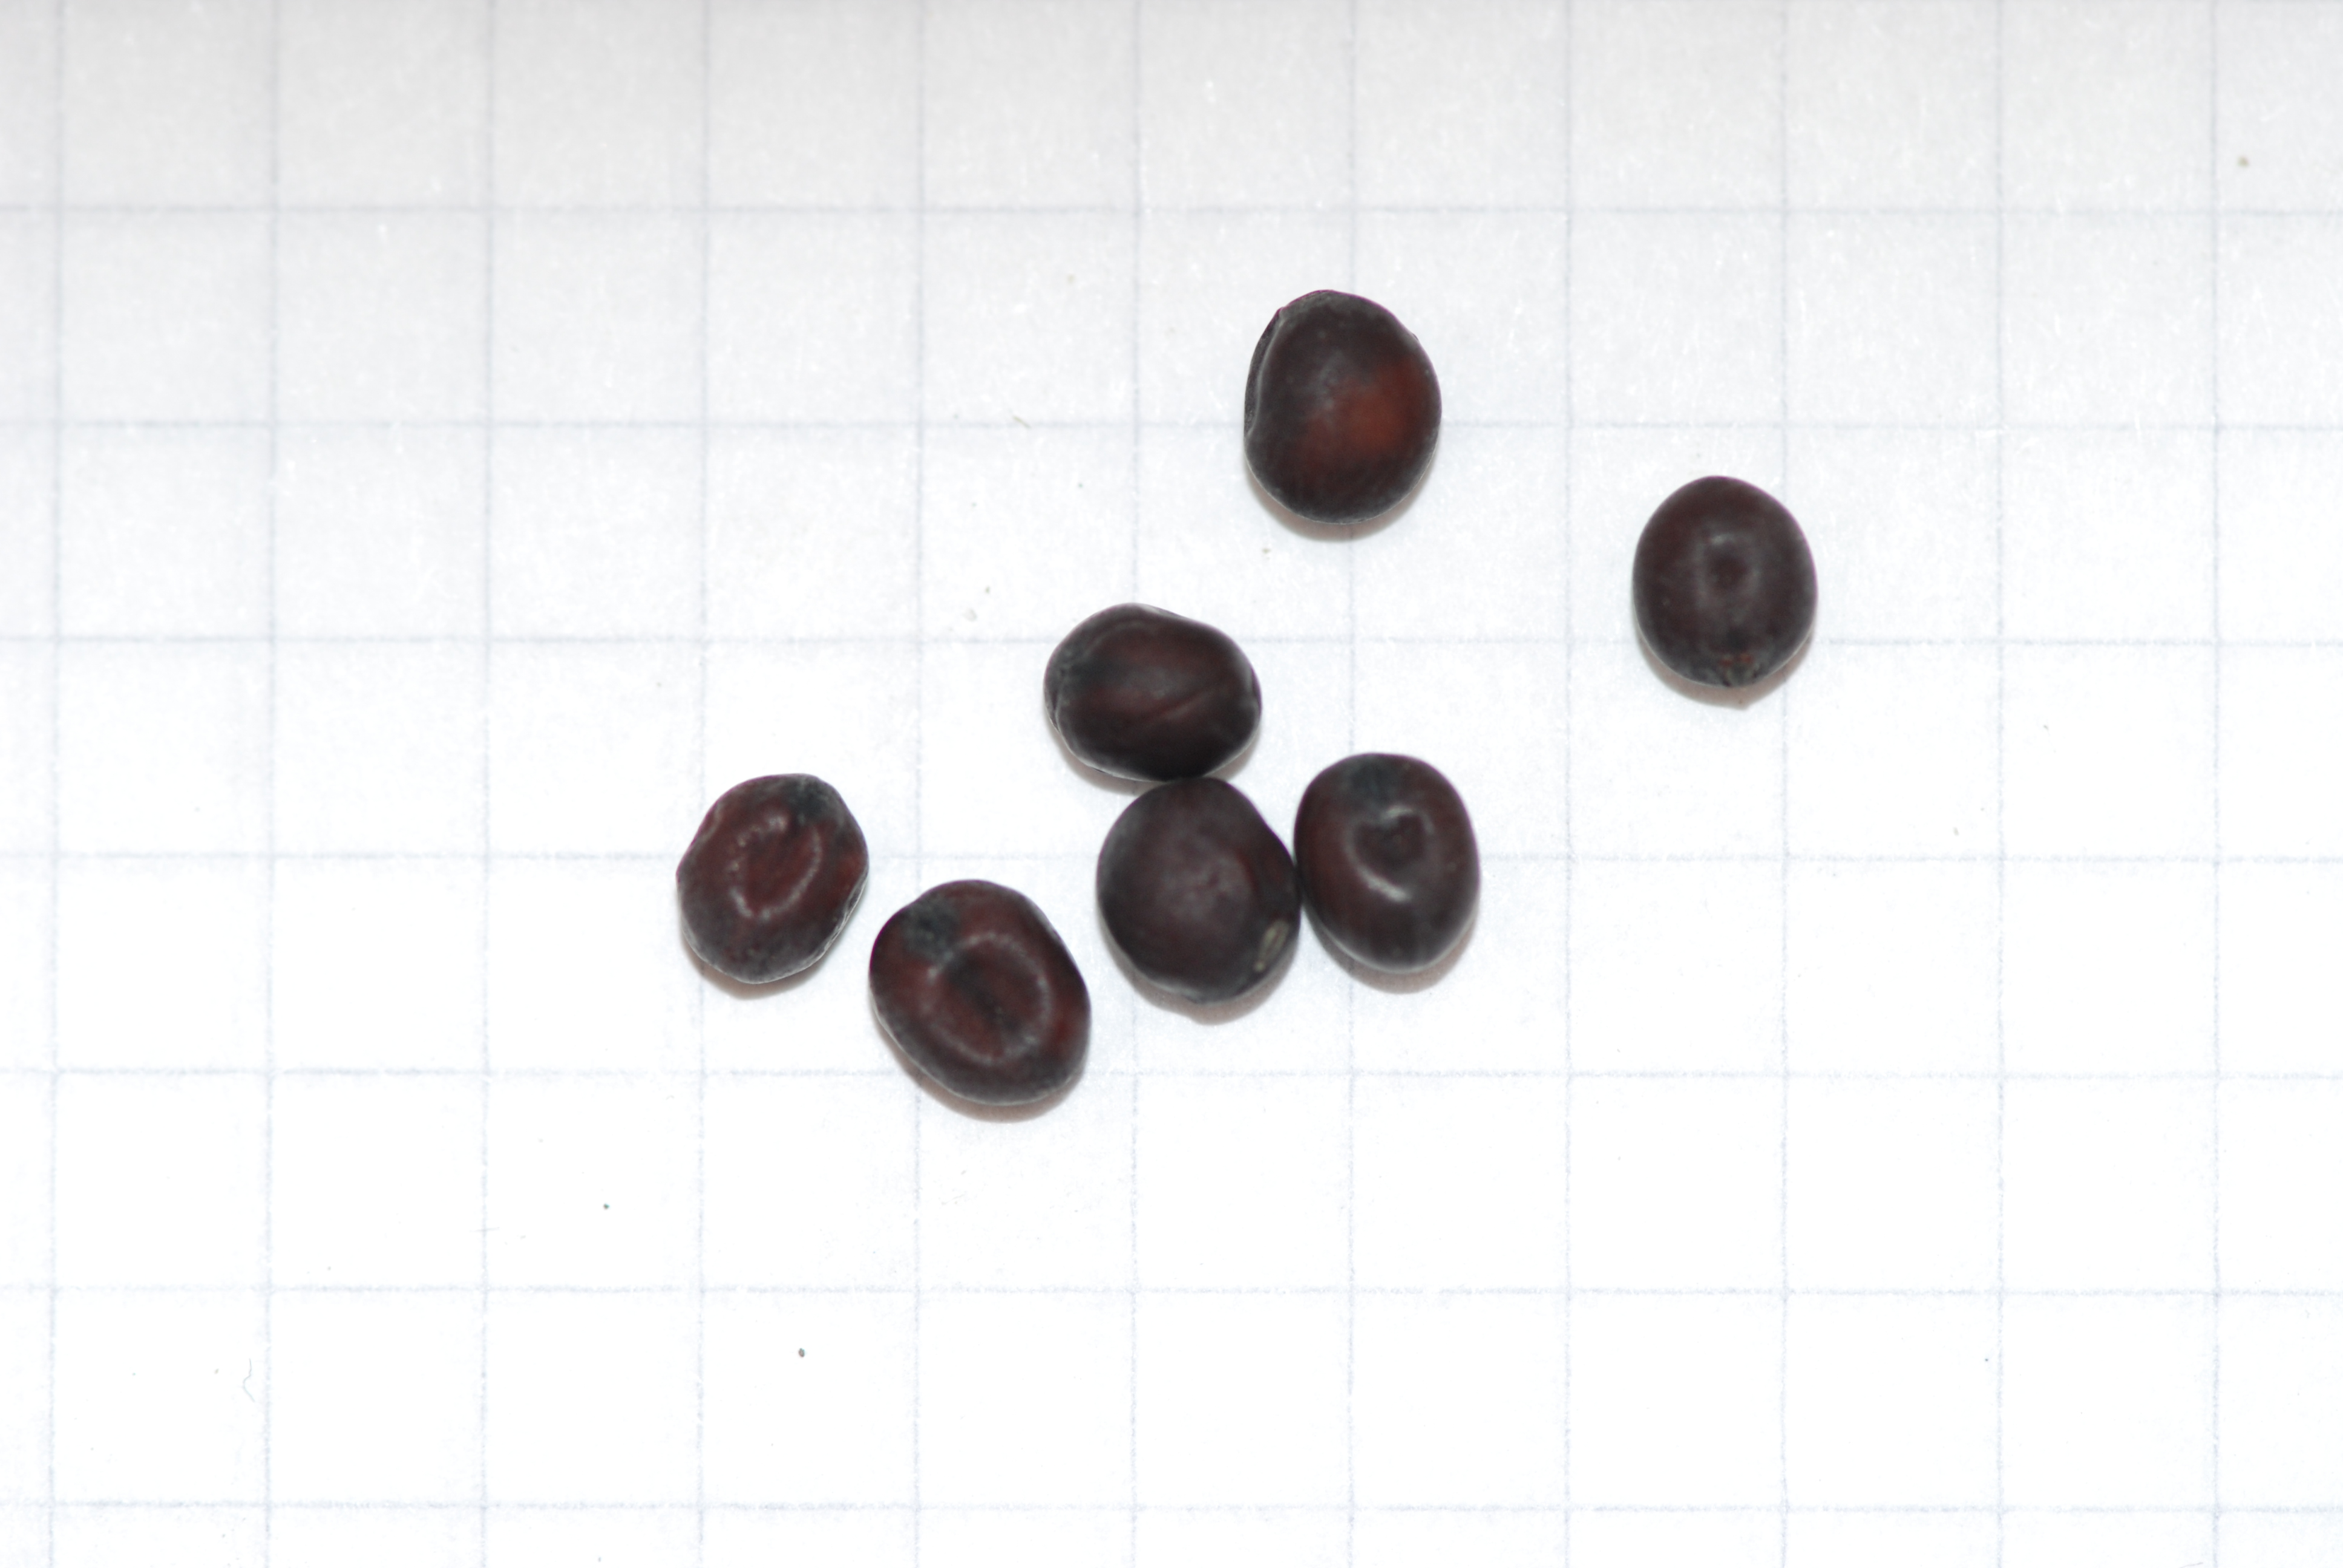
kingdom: Plantae
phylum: Tracheophyta
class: Magnoliopsida
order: Fabales
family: Fabaceae
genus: Lathyrus
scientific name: Lathyrus oleraceus
